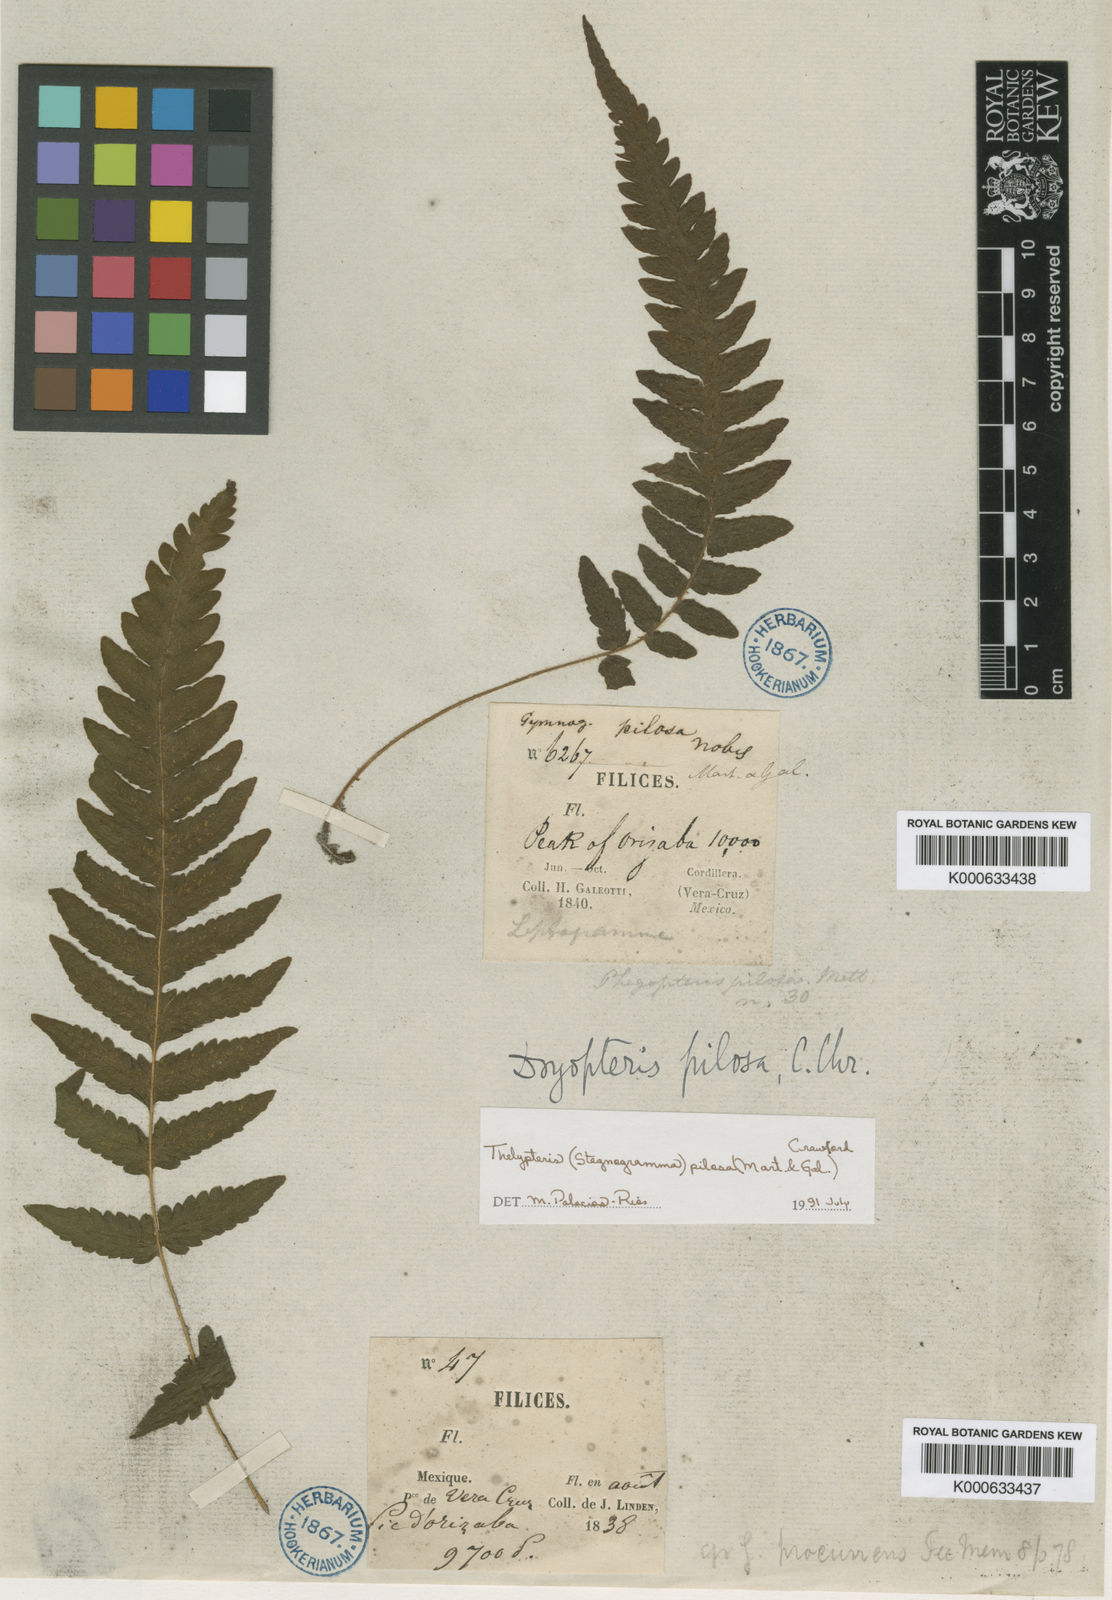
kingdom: Plantae
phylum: Tracheophyta
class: Polypodiopsida
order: Polypodiales
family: Thelypteridaceae
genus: Leptogramma
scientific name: Leptogramma pilosa
